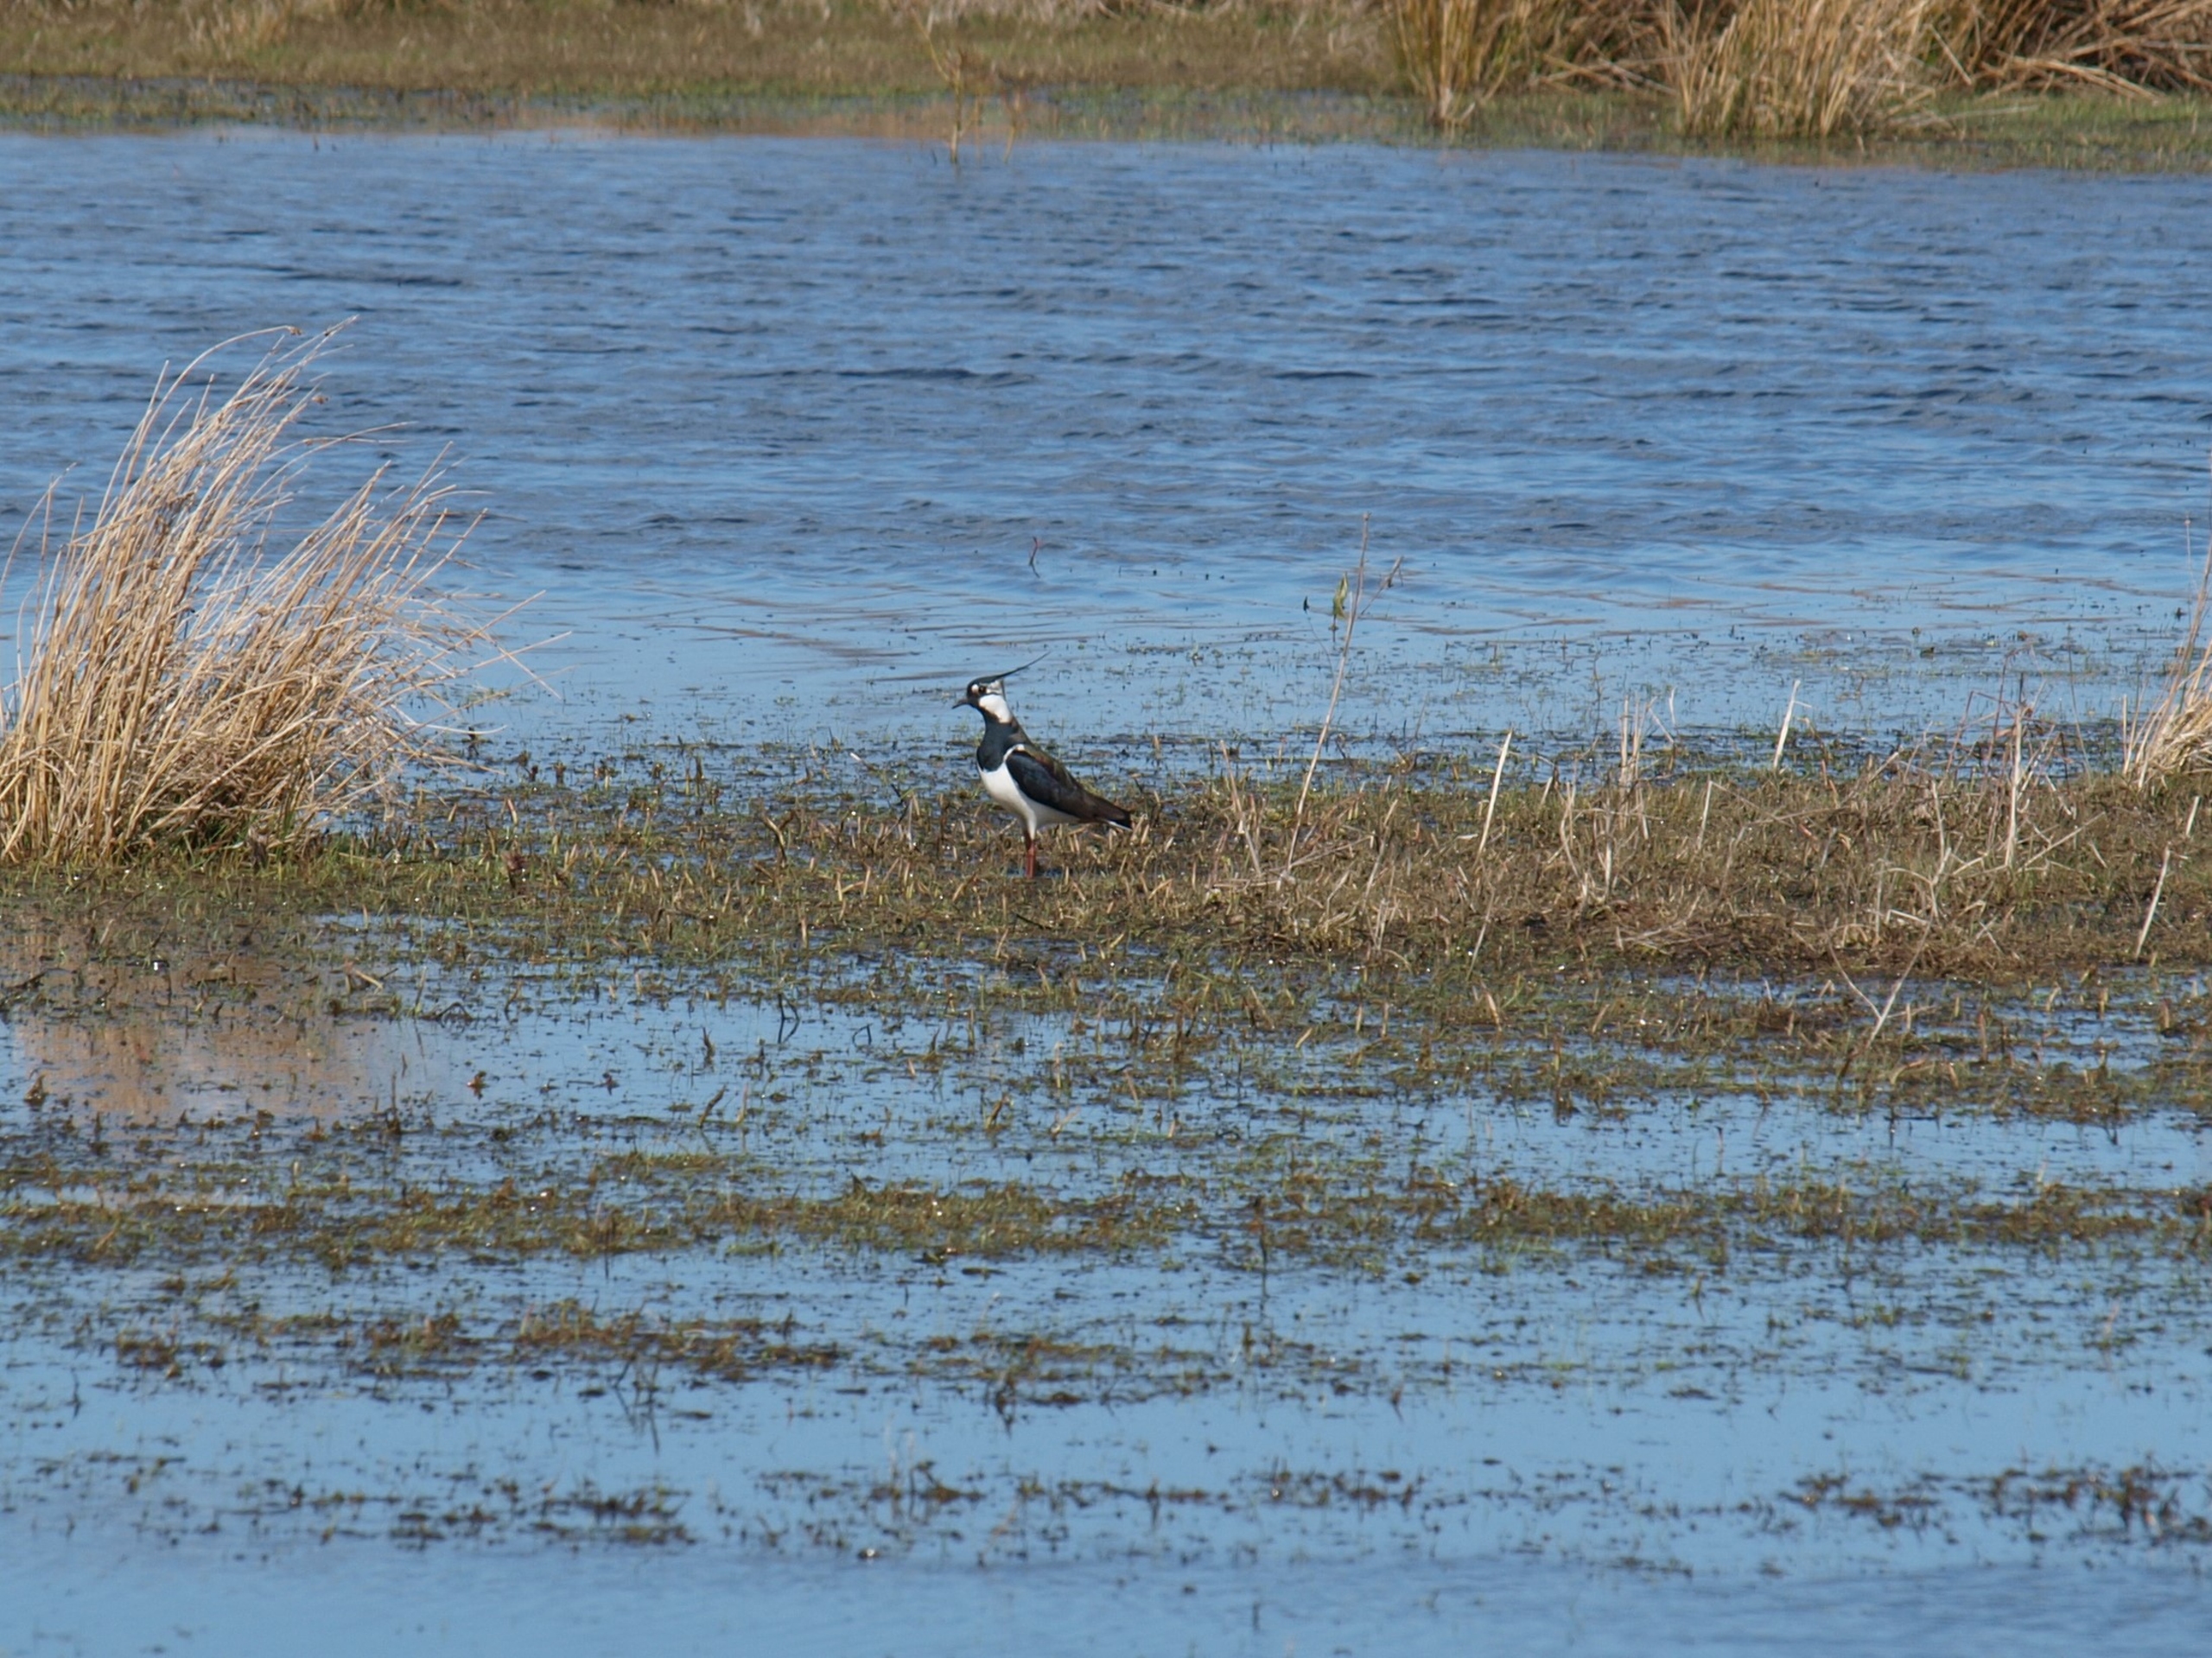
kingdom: Animalia
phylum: Chordata
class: Aves
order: Charadriiformes
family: Charadriidae
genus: Vanellus
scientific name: Vanellus vanellus
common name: Vibe
